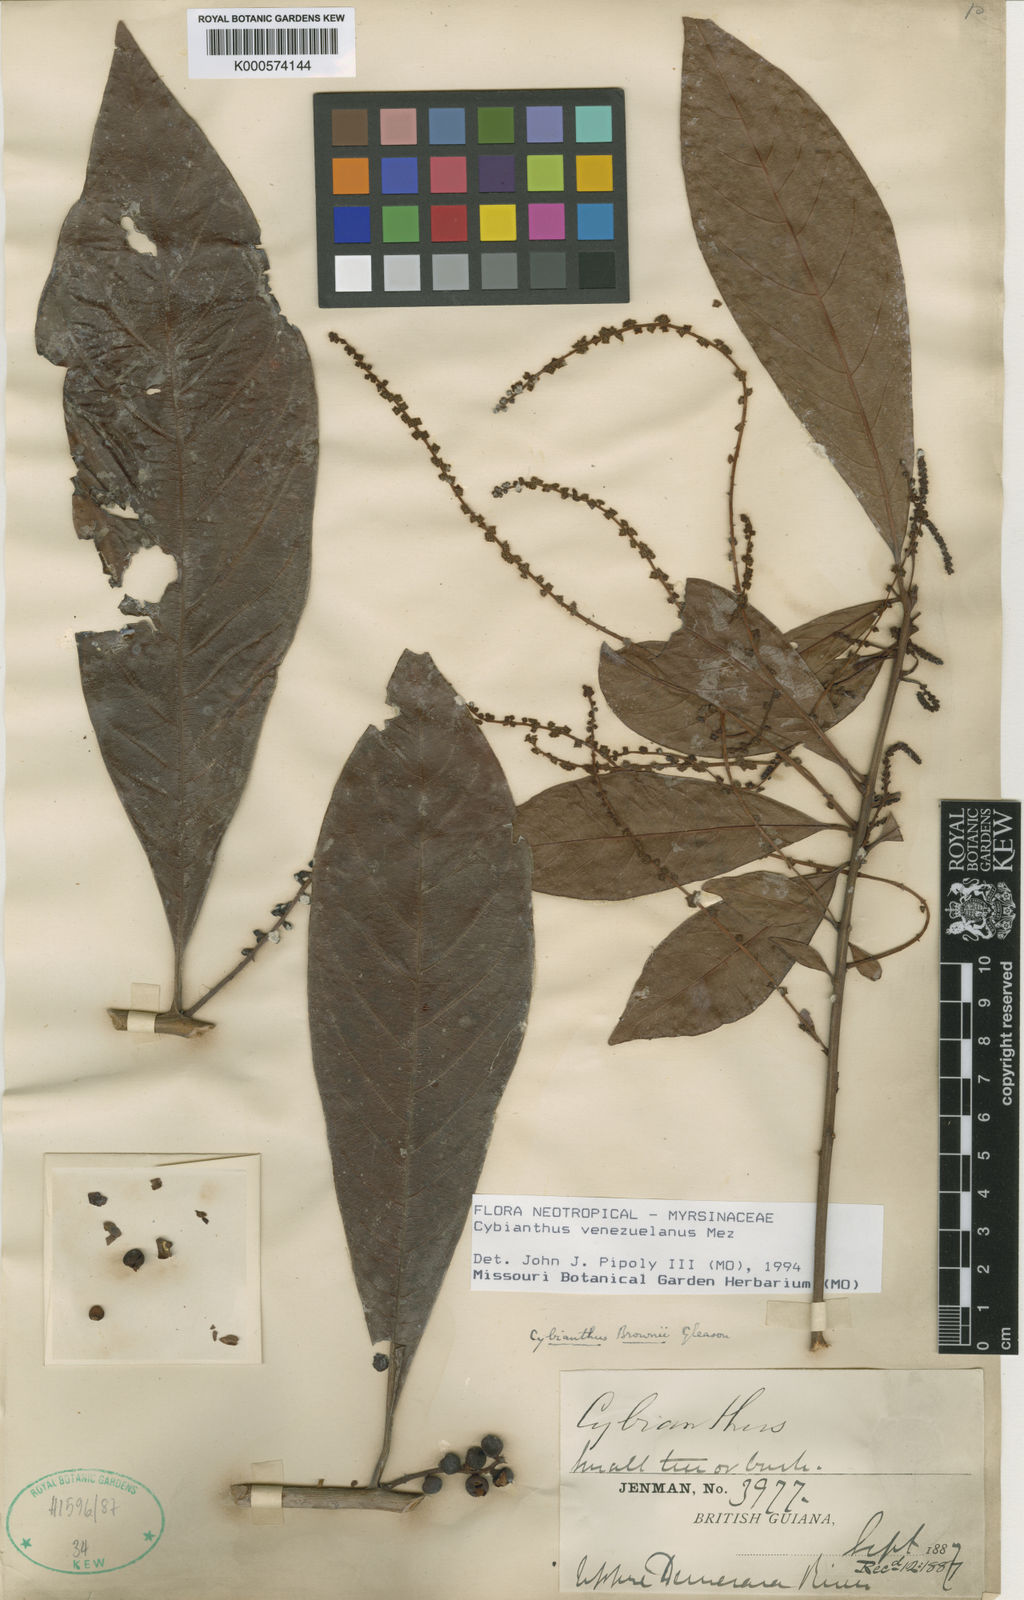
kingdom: Plantae
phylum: Tracheophyta
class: Magnoliopsida
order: Ericales
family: Primulaceae
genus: Cybianthus
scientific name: Cybianthus venezuelanus
